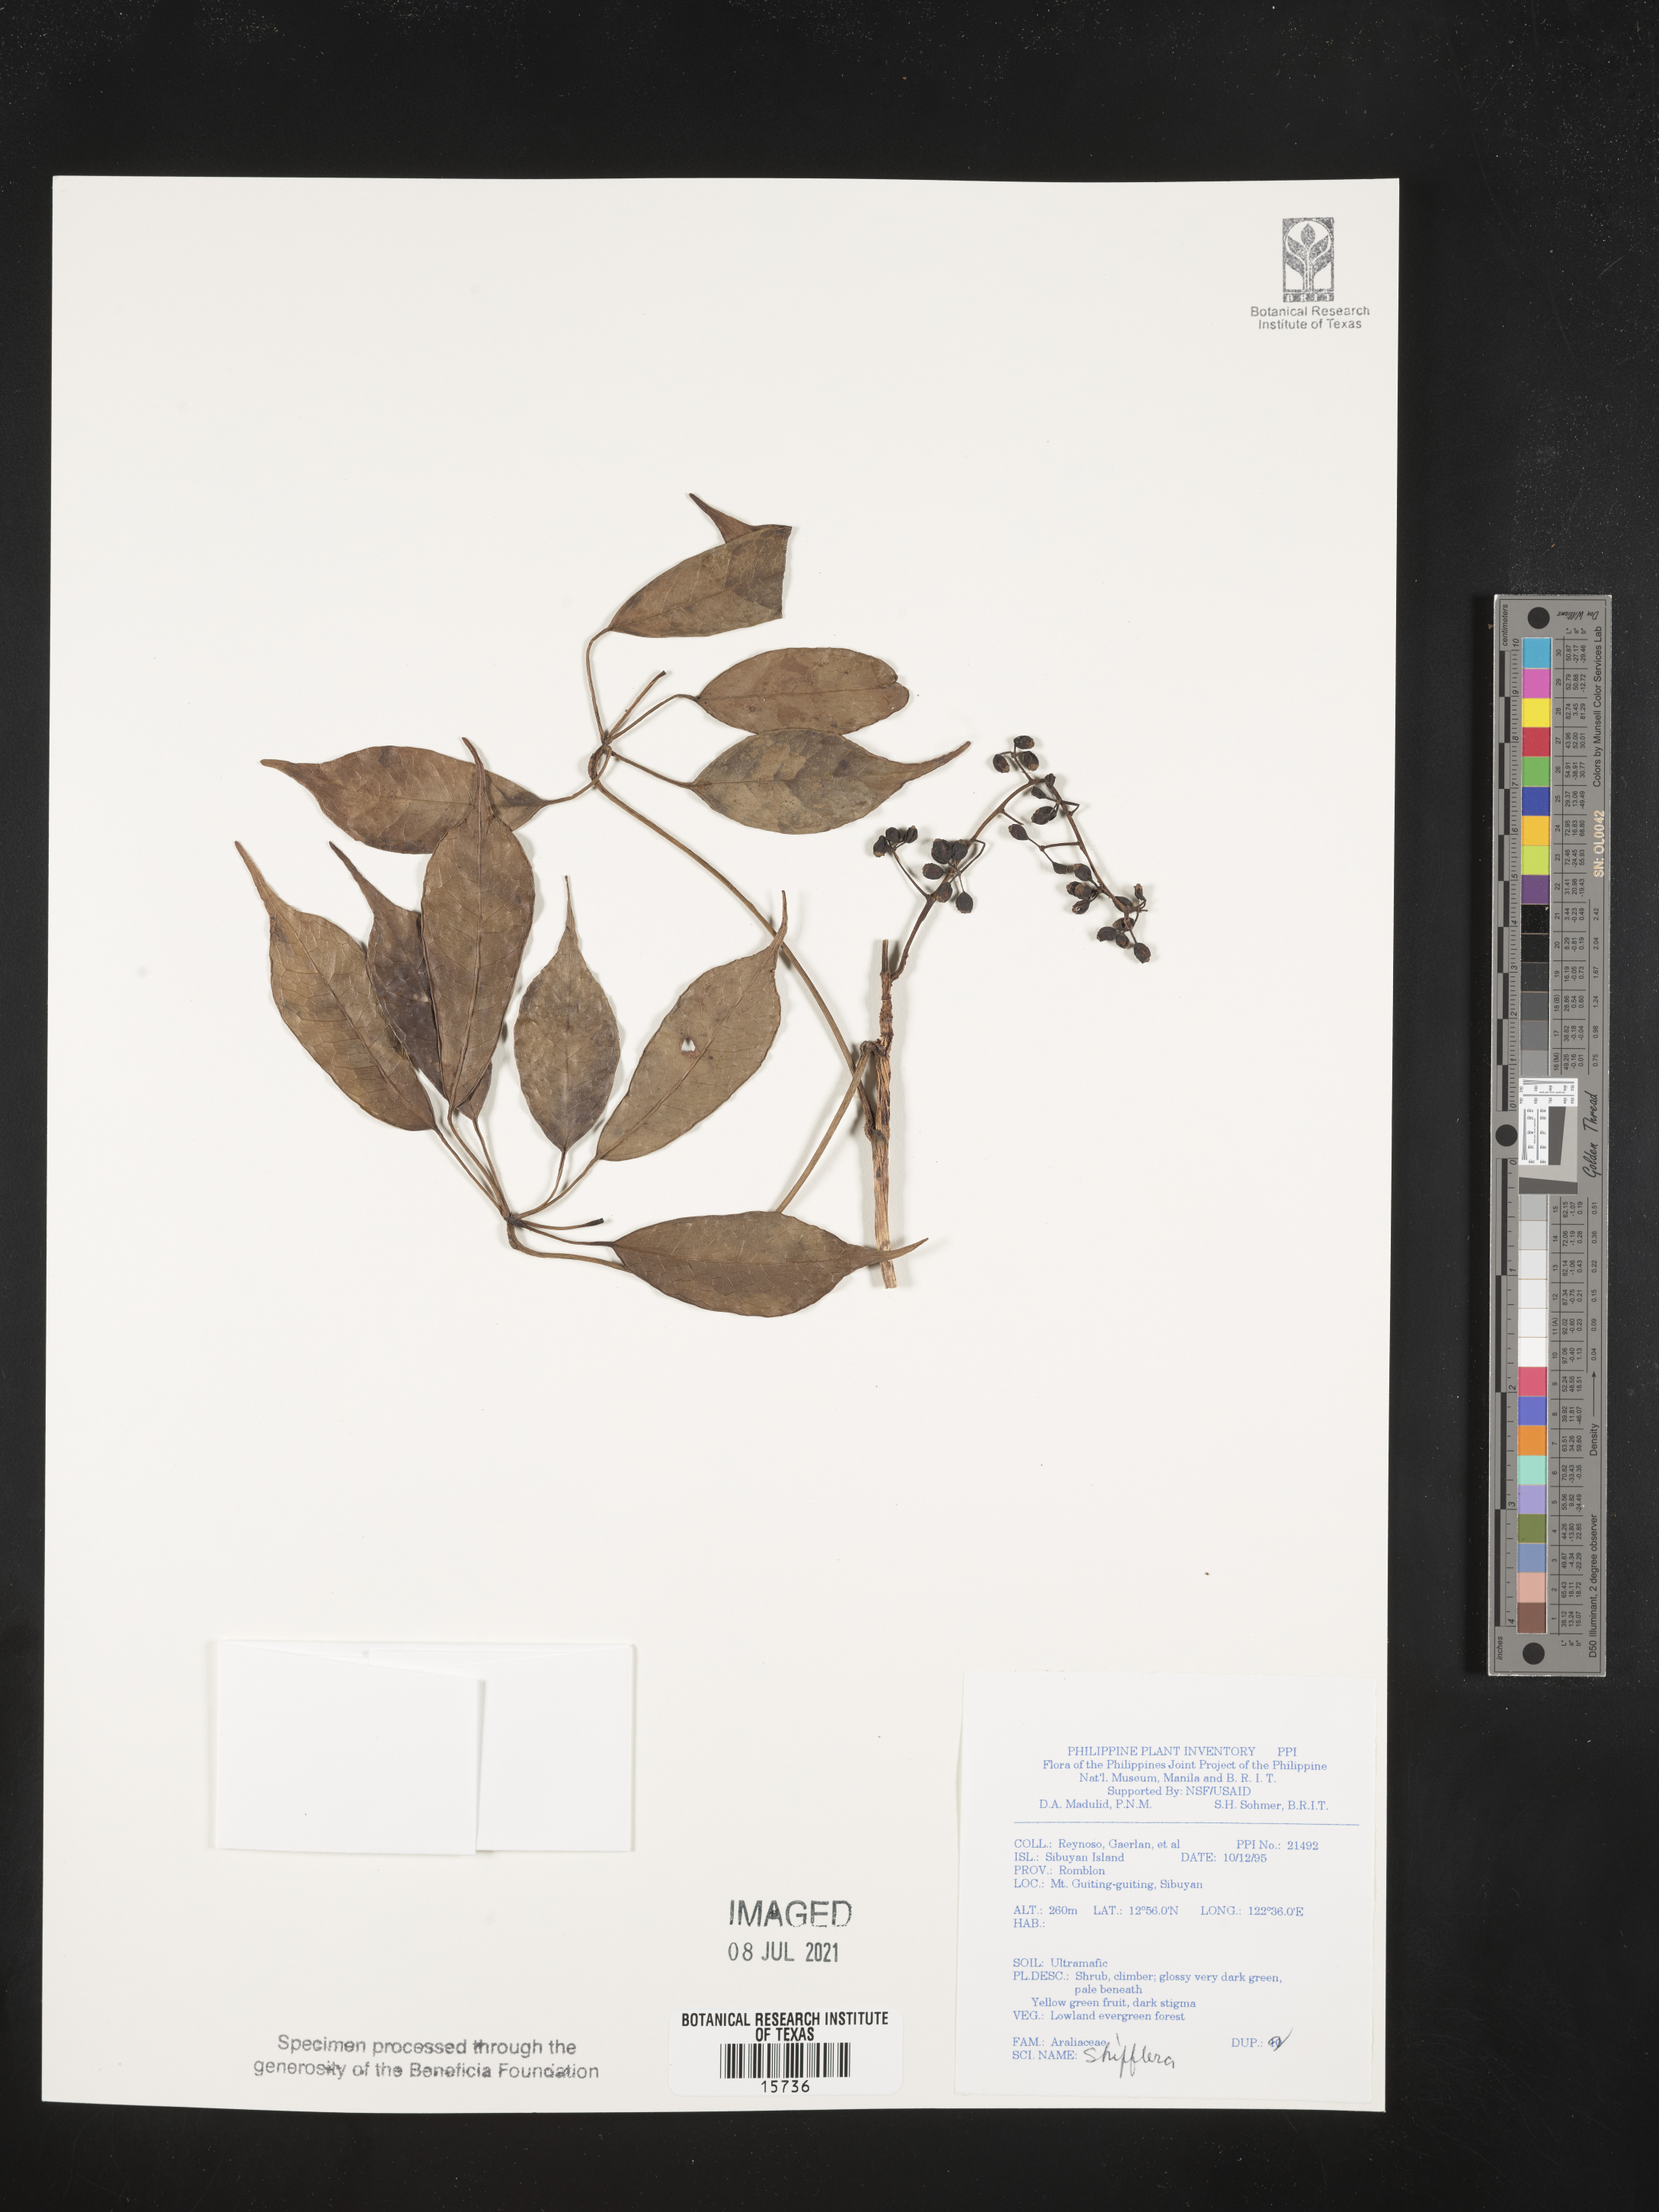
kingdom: Plantae
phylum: Tracheophyta
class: Magnoliopsida
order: Apiales
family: Araliaceae
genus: Schefflera
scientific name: Schefflera
